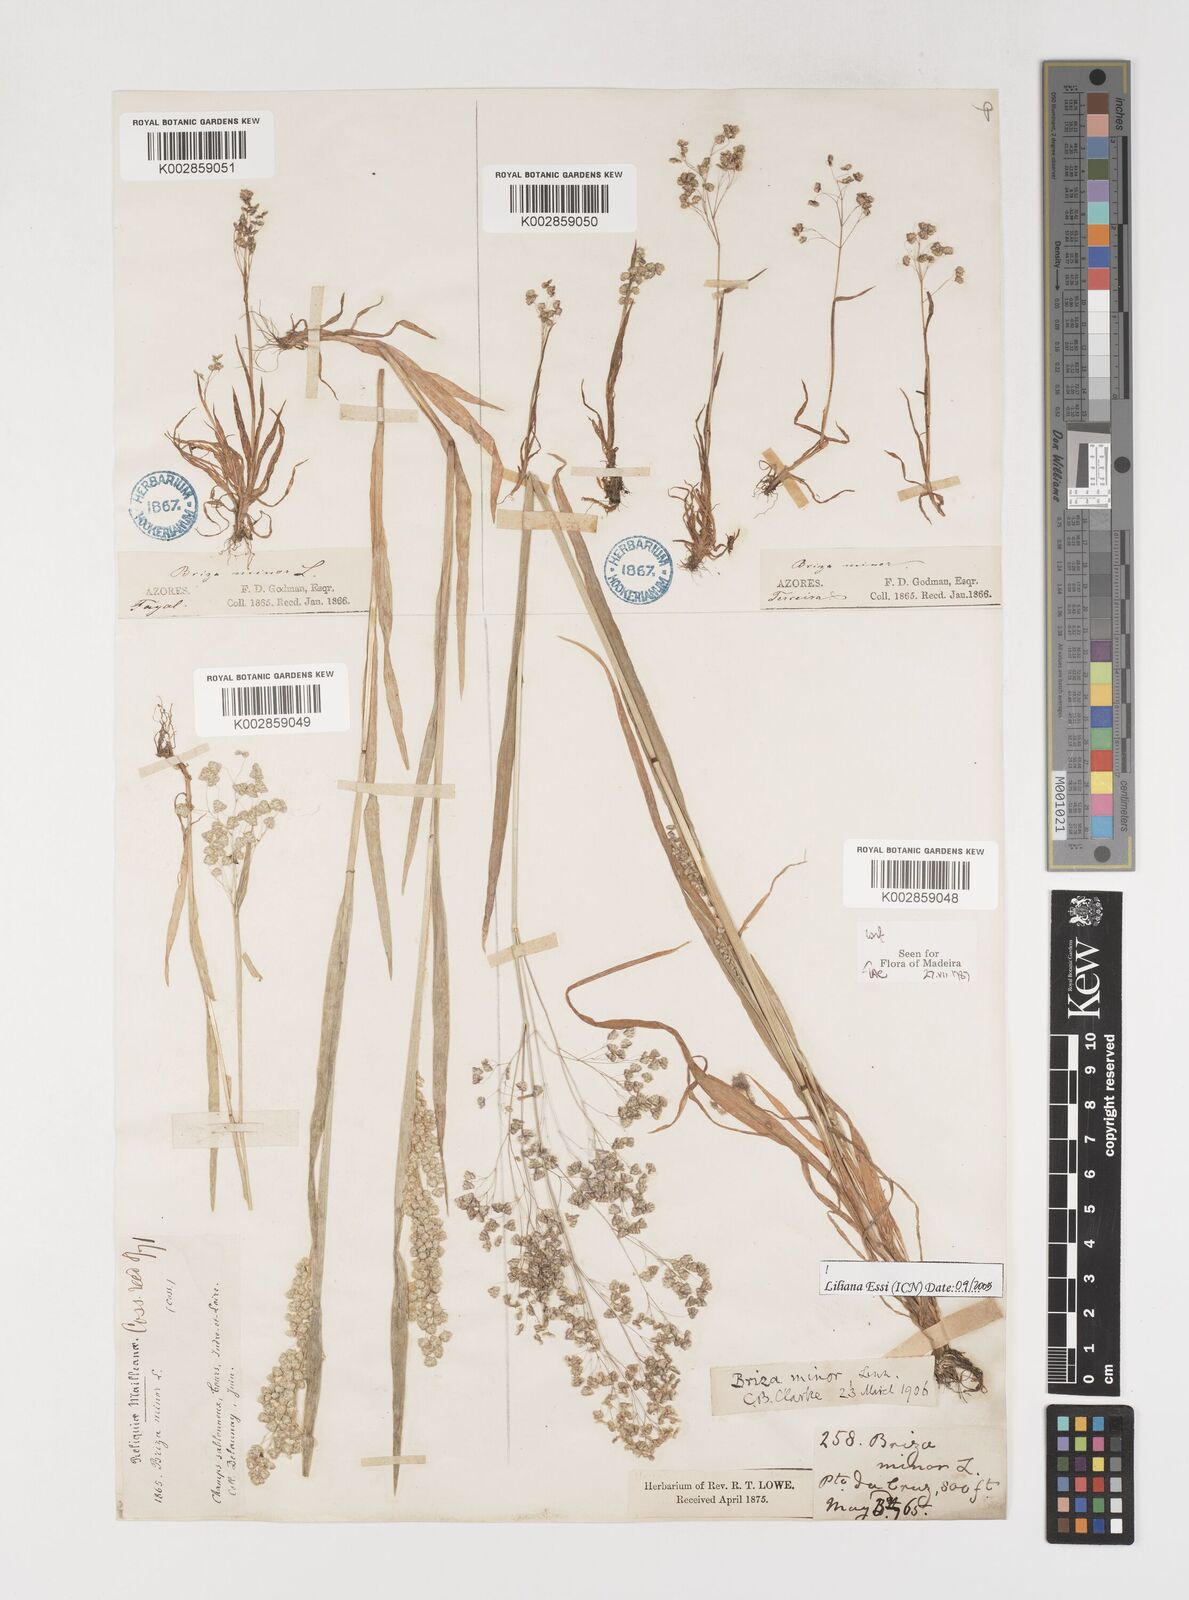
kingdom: Plantae
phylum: Tracheophyta
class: Liliopsida
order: Poales
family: Poaceae
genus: Briza
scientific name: Briza minor
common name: Lesser quaking-grass
